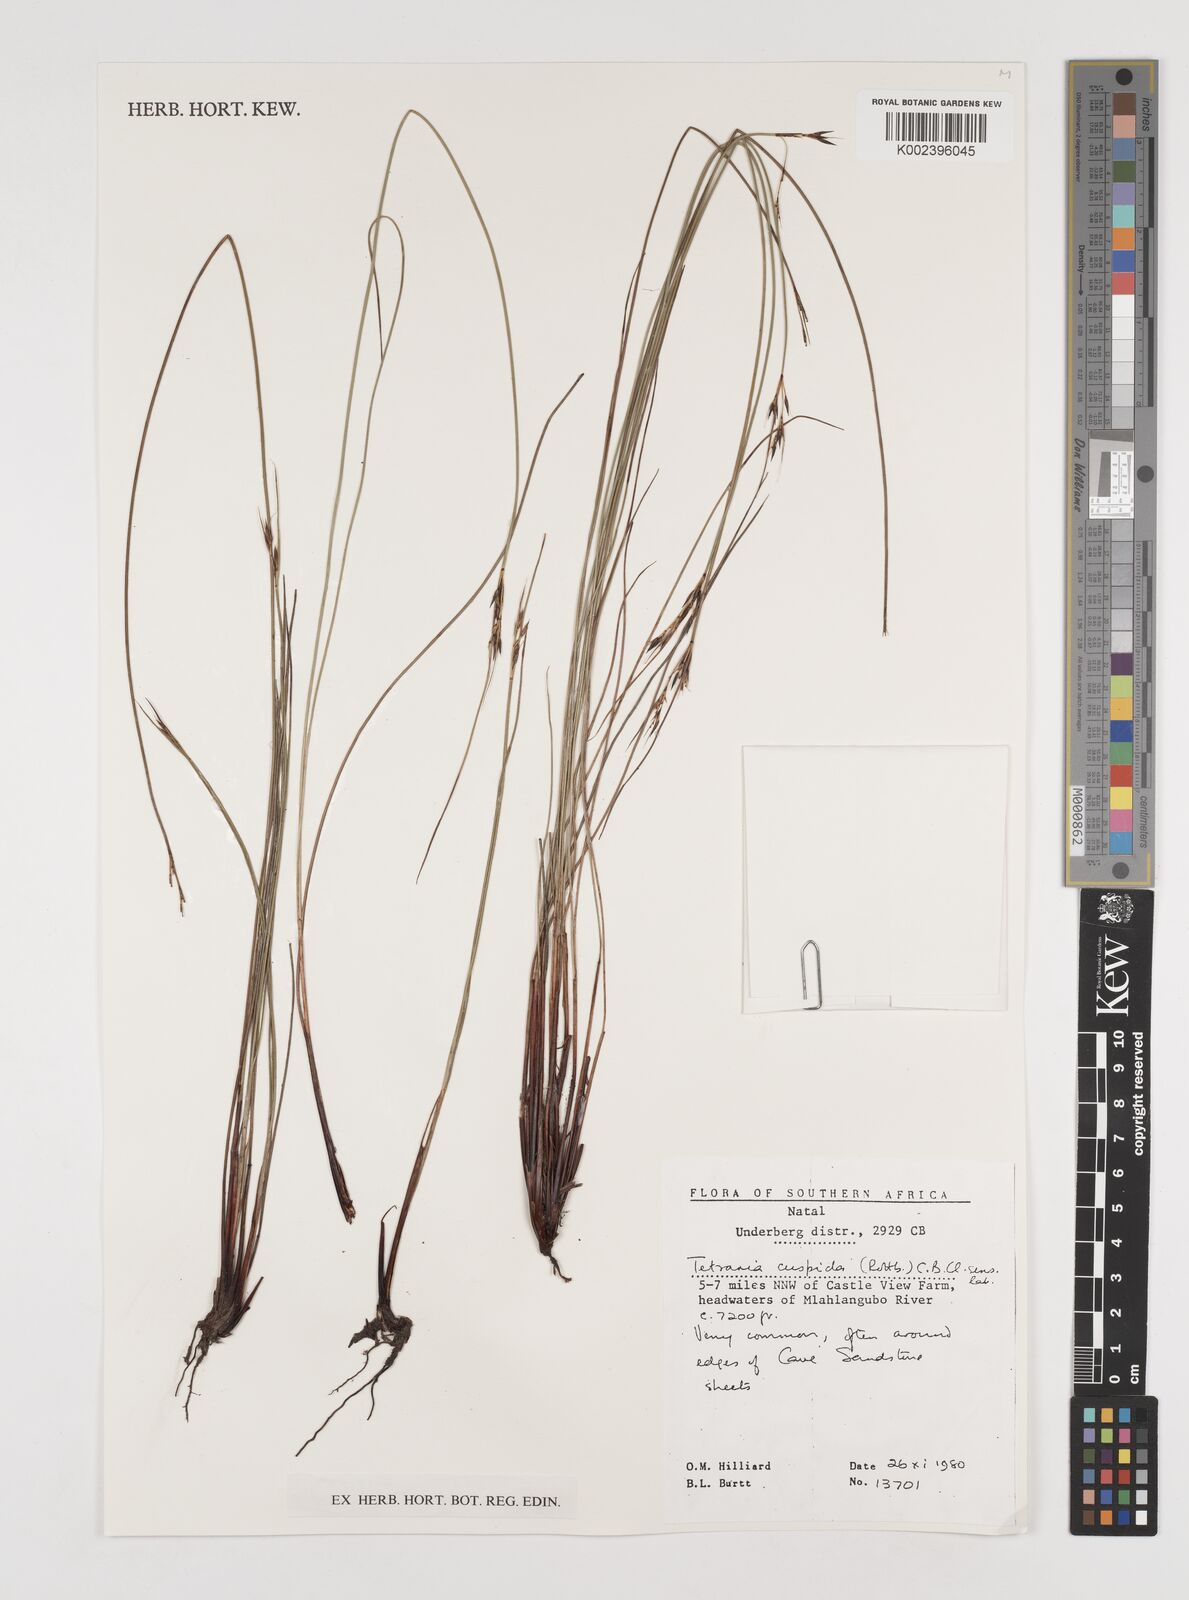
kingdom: Plantae
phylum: Tracheophyta
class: Liliopsida
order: Poales
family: Cyperaceae
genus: Schoenus
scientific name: Schoenus cuspidatus
